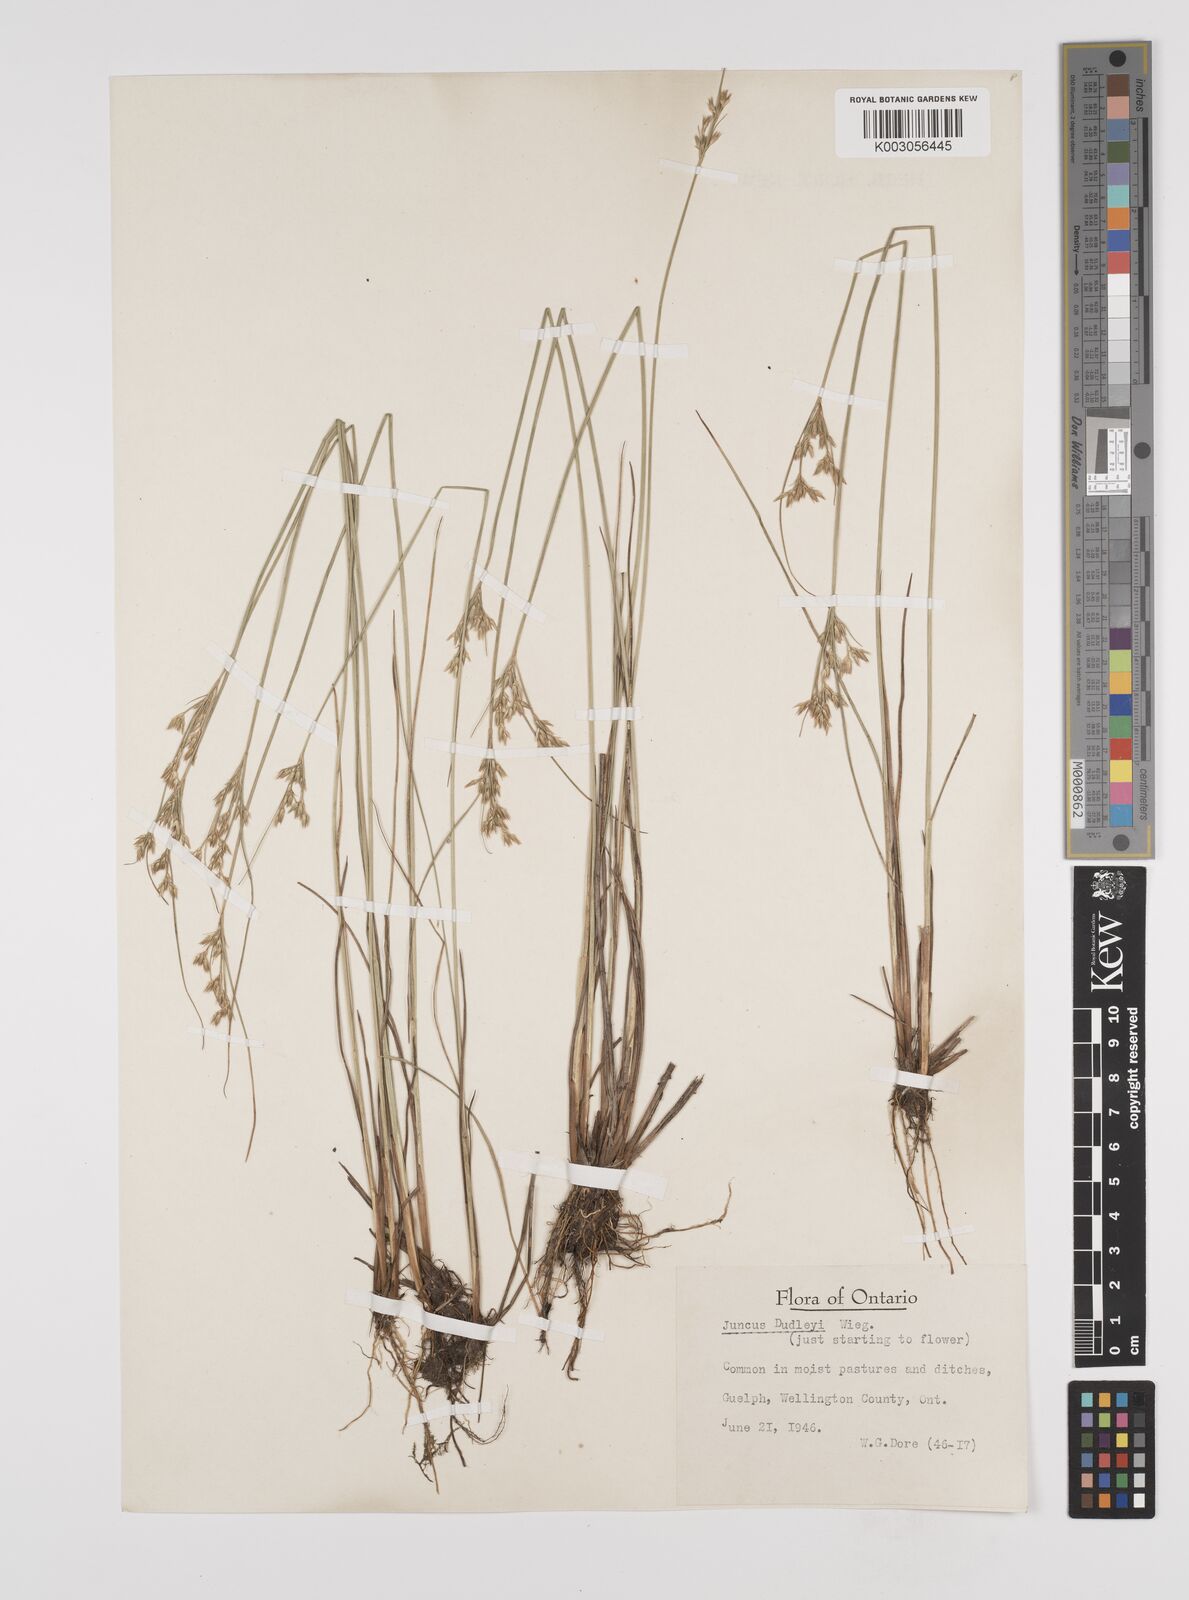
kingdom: Plantae
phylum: Tracheophyta
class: Liliopsida
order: Poales
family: Juncaceae
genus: Juncus
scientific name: Juncus dudleyi
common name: Dudley's rush
